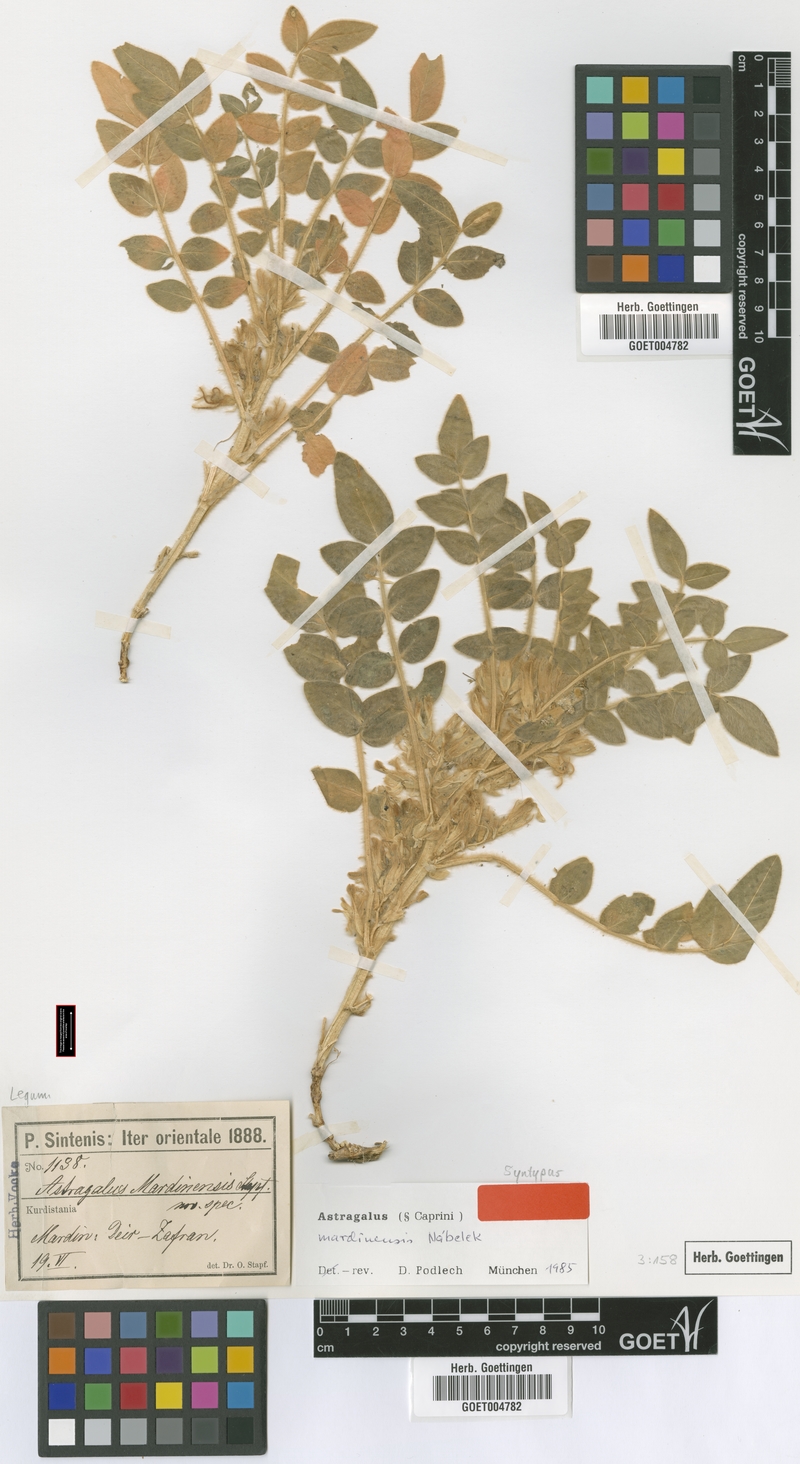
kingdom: Plantae
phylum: Tracheophyta
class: Magnoliopsida
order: Fabales
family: Fabaceae
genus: Astragalus
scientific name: Astragalus mardinensis
